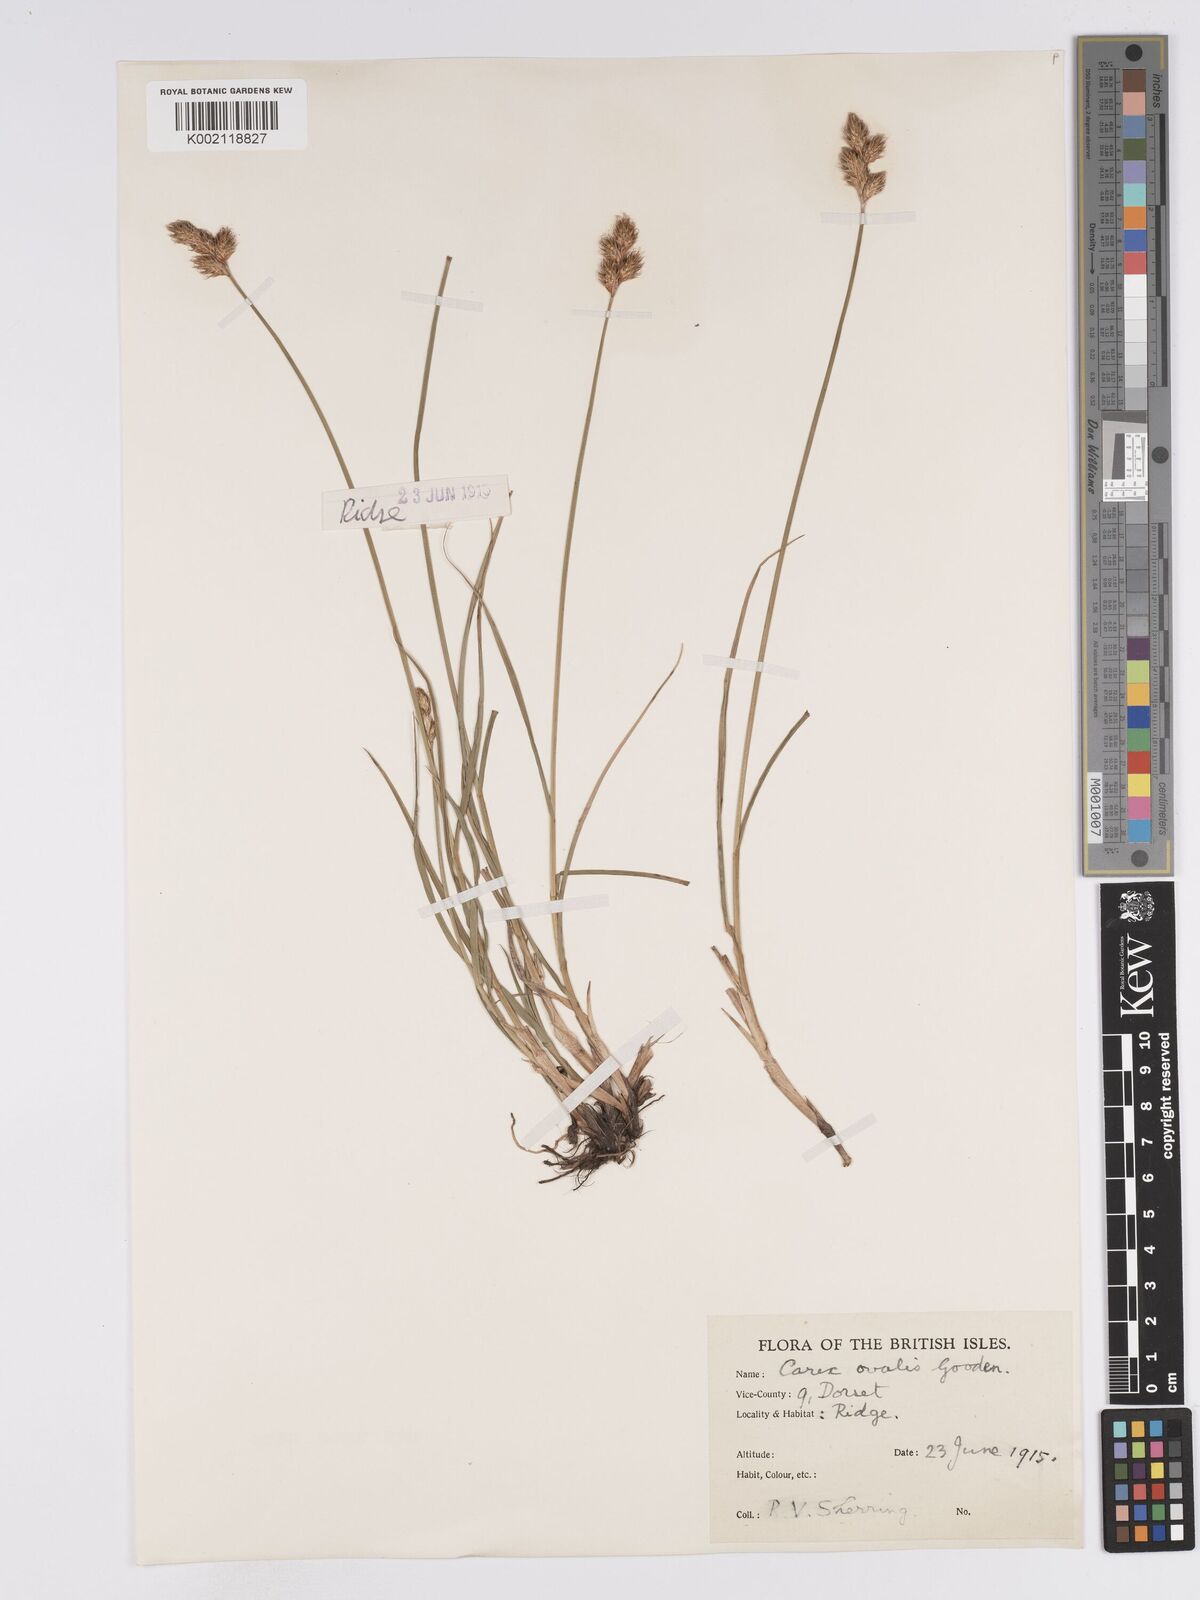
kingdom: Plantae
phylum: Tracheophyta
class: Liliopsida
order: Poales
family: Cyperaceae
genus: Carex
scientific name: Carex leporina
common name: Oval sedge
